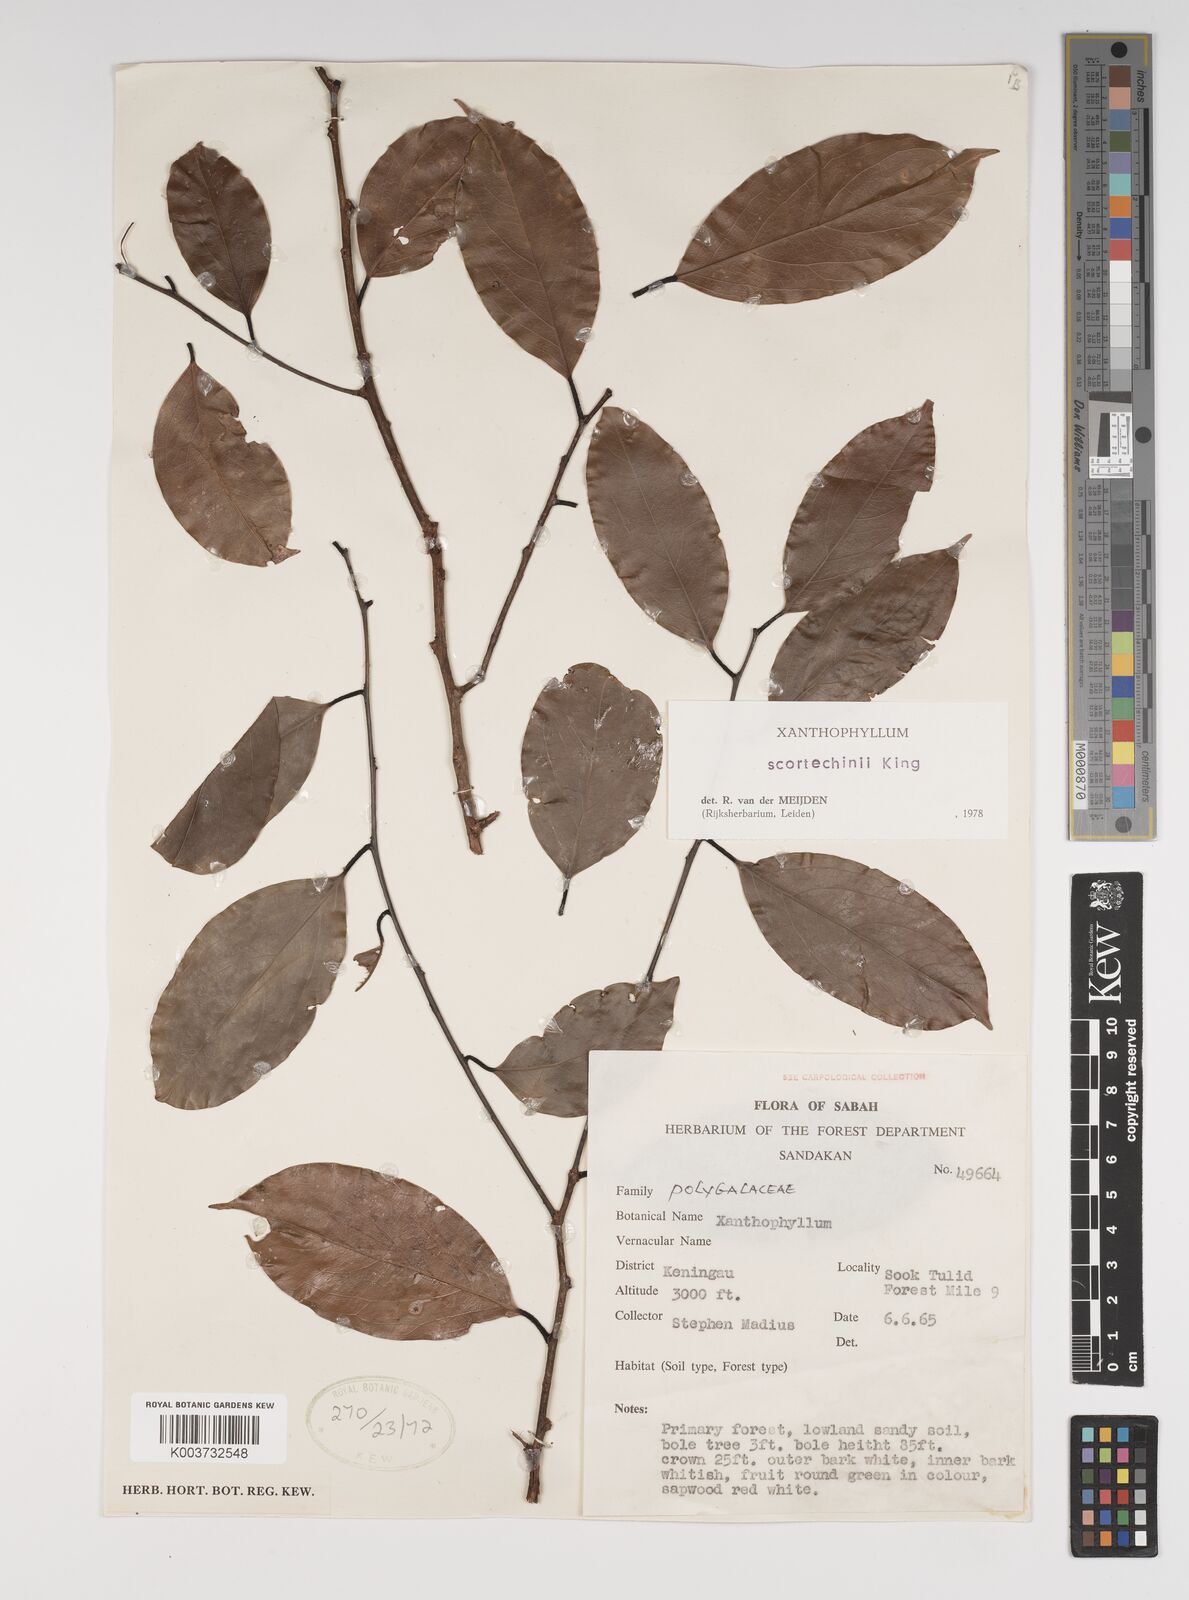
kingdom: Plantae
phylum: Tracheophyta
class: Magnoliopsida
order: Fabales
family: Polygalaceae
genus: Xanthophyllum
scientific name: Xanthophyllum obscurum
